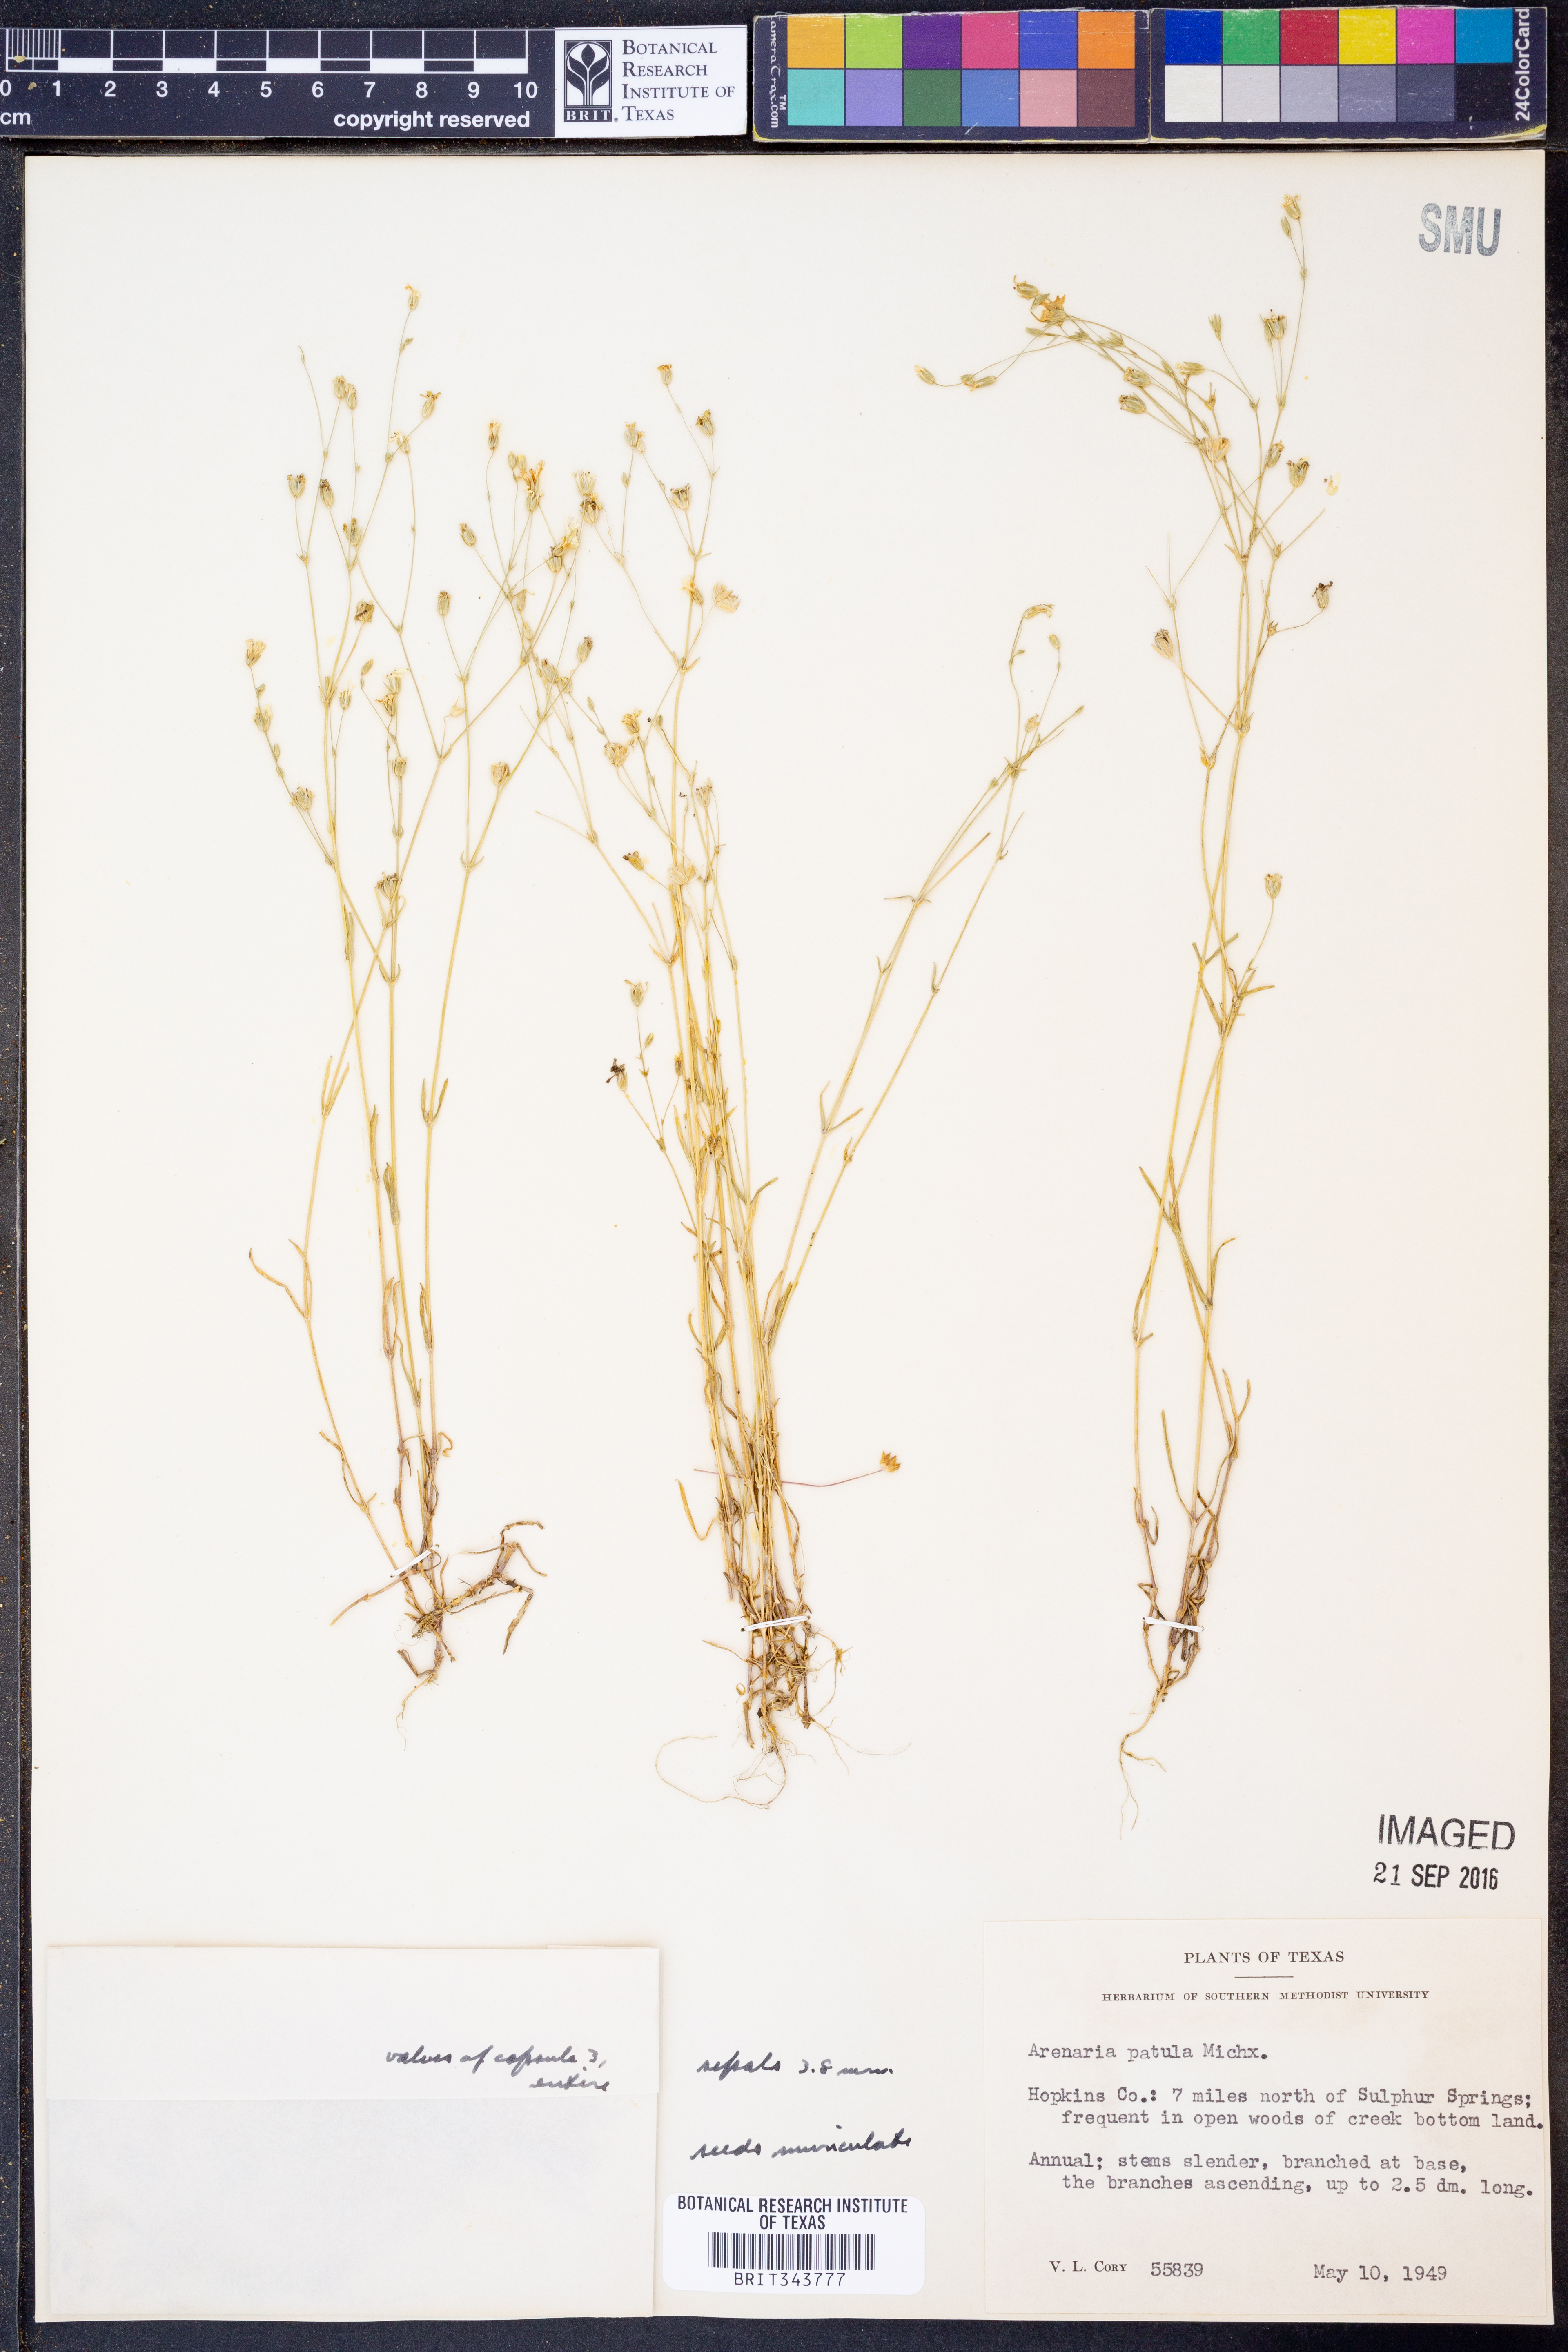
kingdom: Plantae
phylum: Tracheophyta
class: Magnoliopsida
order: Caryophyllales
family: Caryophyllaceae
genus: Mononeuria
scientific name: Mononeuria patula
